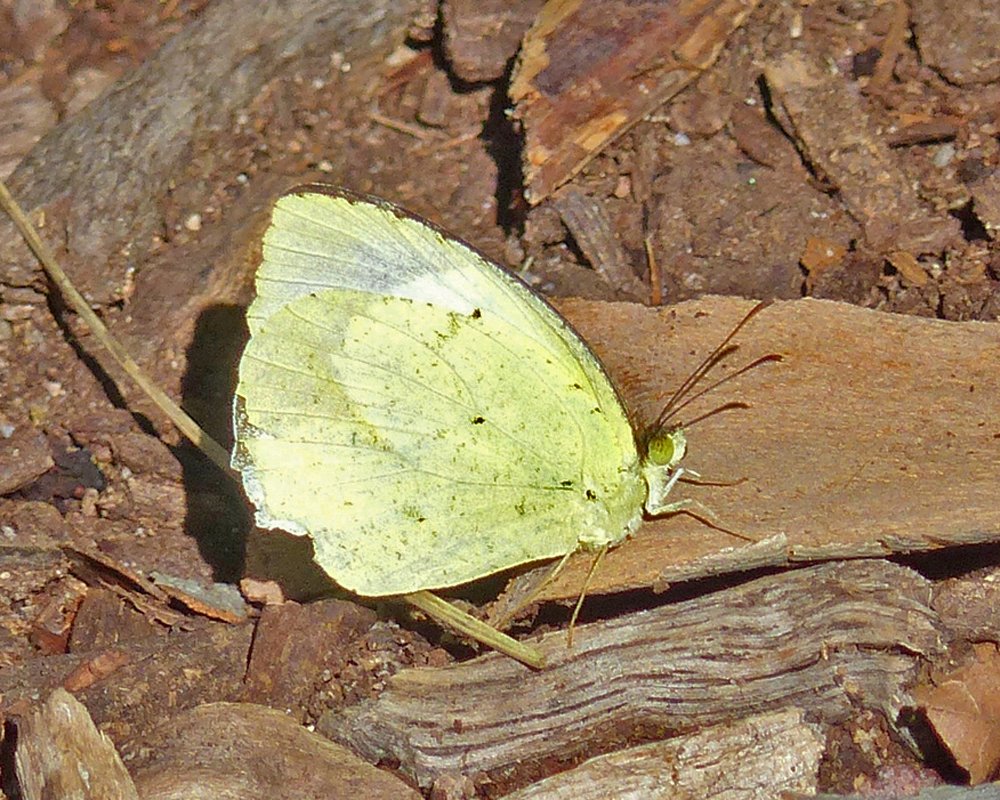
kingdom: Animalia
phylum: Arthropoda
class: Insecta
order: Lepidoptera
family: Pieridae
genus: Eurema
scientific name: Eurema mexicana
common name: Mexican Yellow
